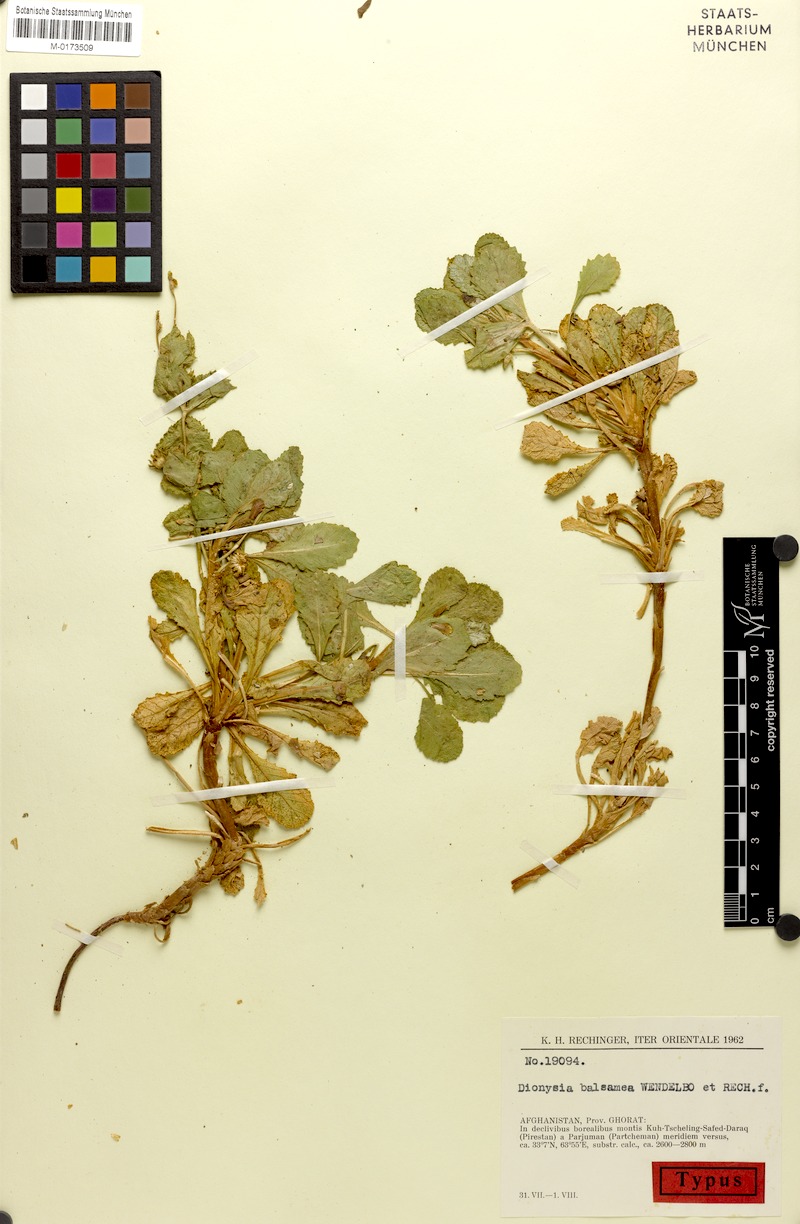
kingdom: Plantae
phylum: Tracheophyta
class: Magnoliopsida
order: Ericales
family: Primulaceae
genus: Dionysia
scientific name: Dionysia balsamea
